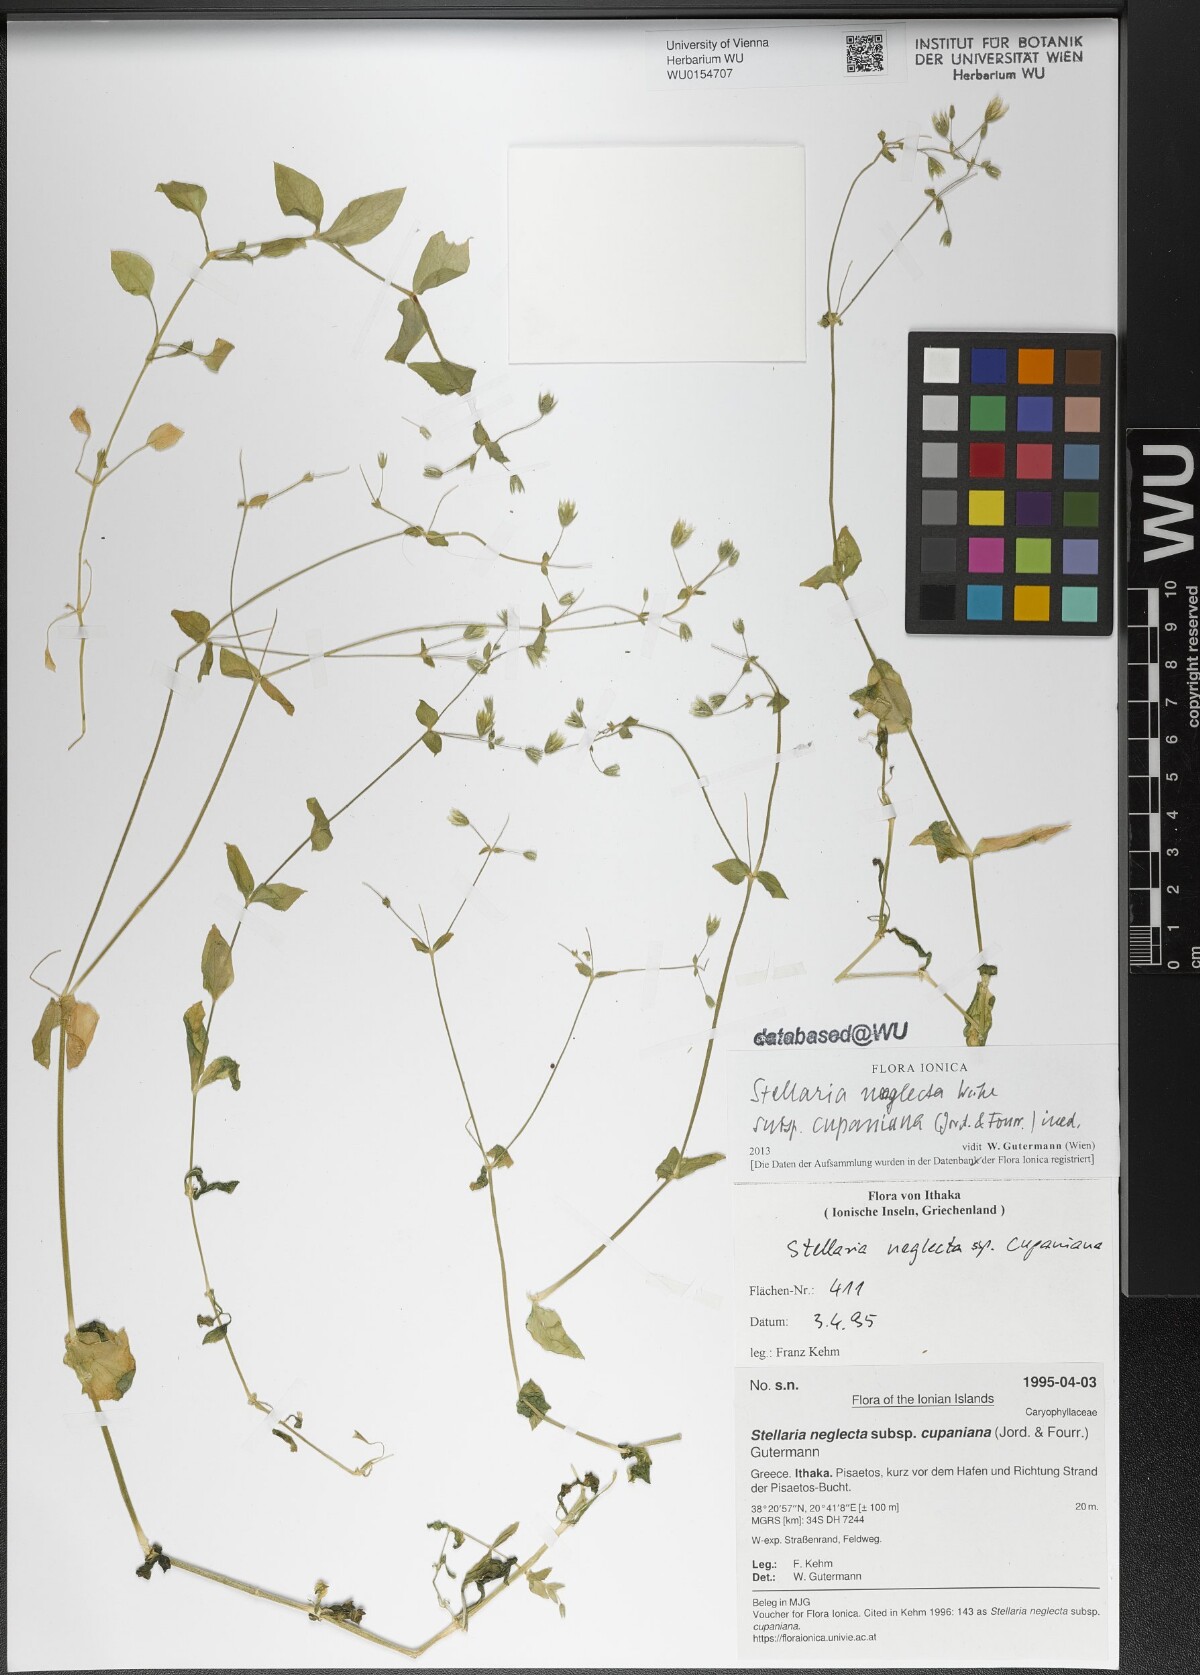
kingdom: Plantae
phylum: Tracheophyta
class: Magnoliopsida
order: Caryophyllales
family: Caryophyllaceae
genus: Stellaria
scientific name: Stellaria cupaniana
